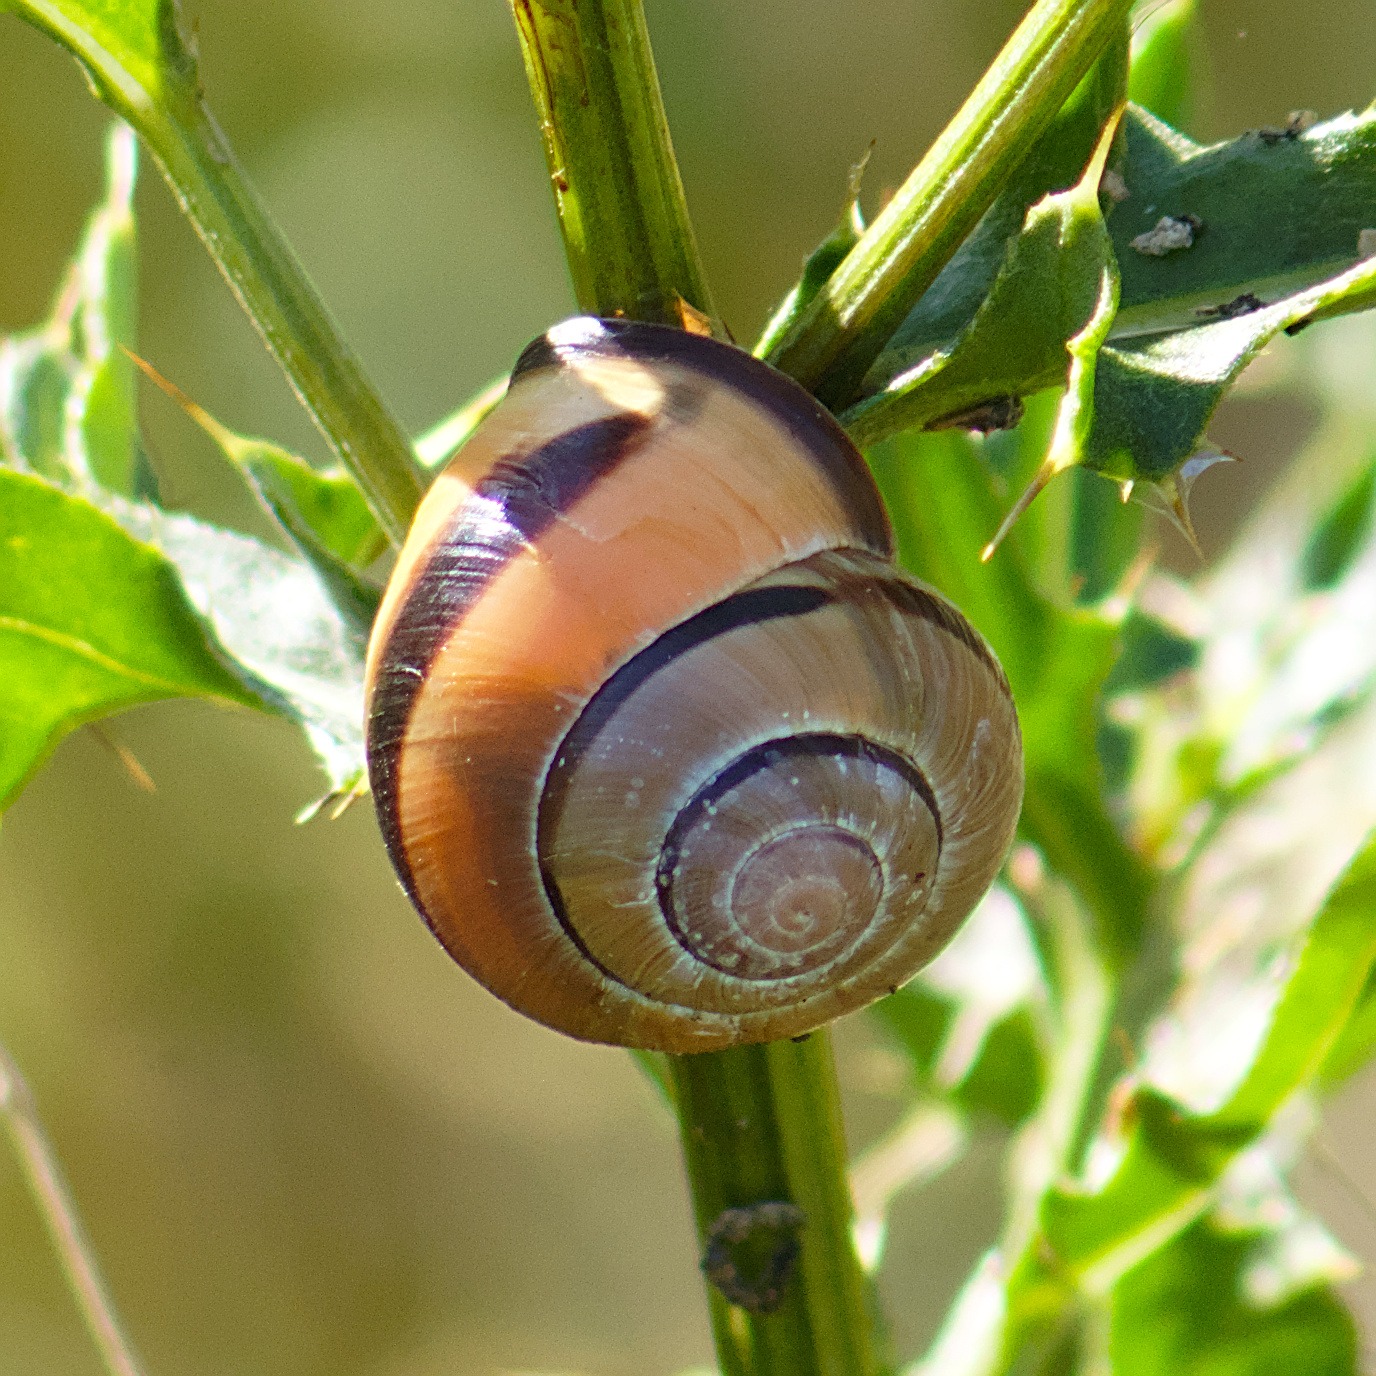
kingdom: Animalia
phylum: Mollusca
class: Gastropoda
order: Stylommatophora
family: Helicidae
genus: Cepaea
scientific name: Cepaea nemoralis
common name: Lundsnegl
